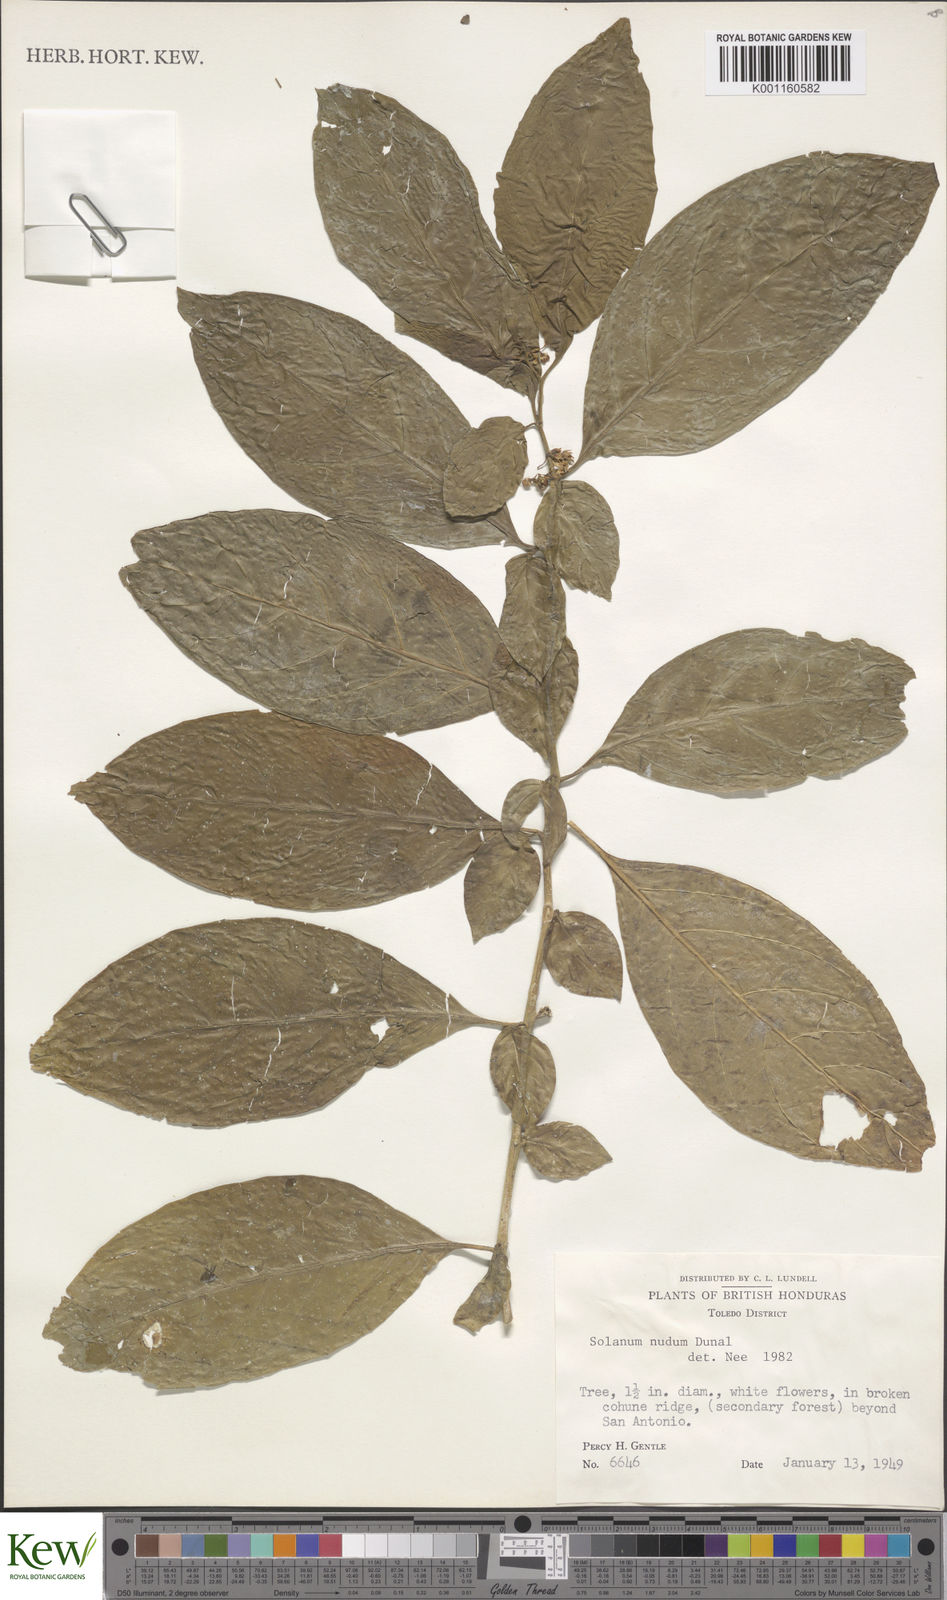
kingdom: Plantae
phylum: Tracheophyta
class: Magnoliopsida
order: Solanales
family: Solanaceae
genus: Solanum
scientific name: Solanum nudum
